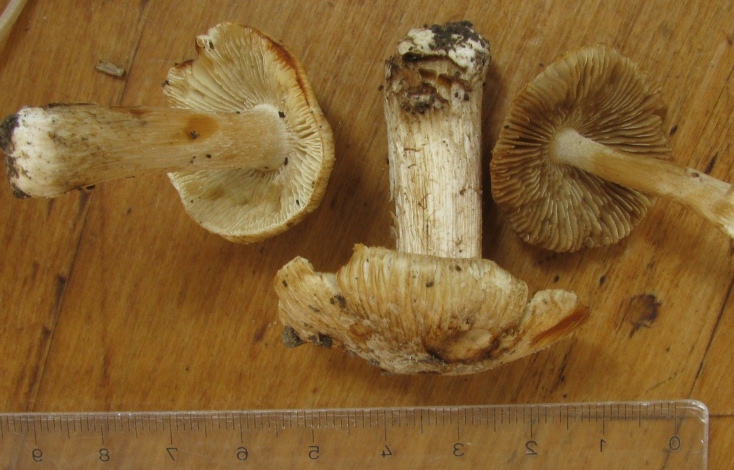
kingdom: Fungi
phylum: Basidiomycota
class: Agaricomycetes
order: Agaricales
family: Inocybaceae
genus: Inosperma
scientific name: Inosperma erubescens
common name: giftig trævlhat
